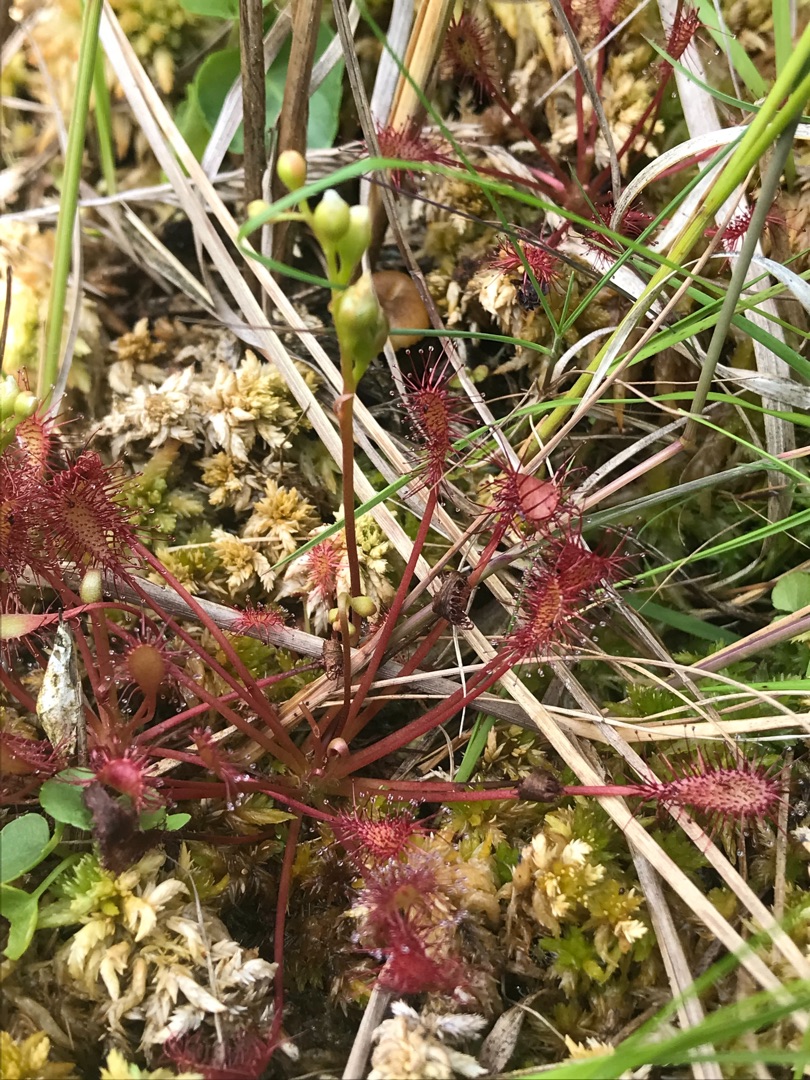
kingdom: Plantae
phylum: Tracheophyta
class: Magnoliopsida
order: Caryophyllales
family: Droseraceae
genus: Drosera
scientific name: Drosera intermedia
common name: Liden soldug
